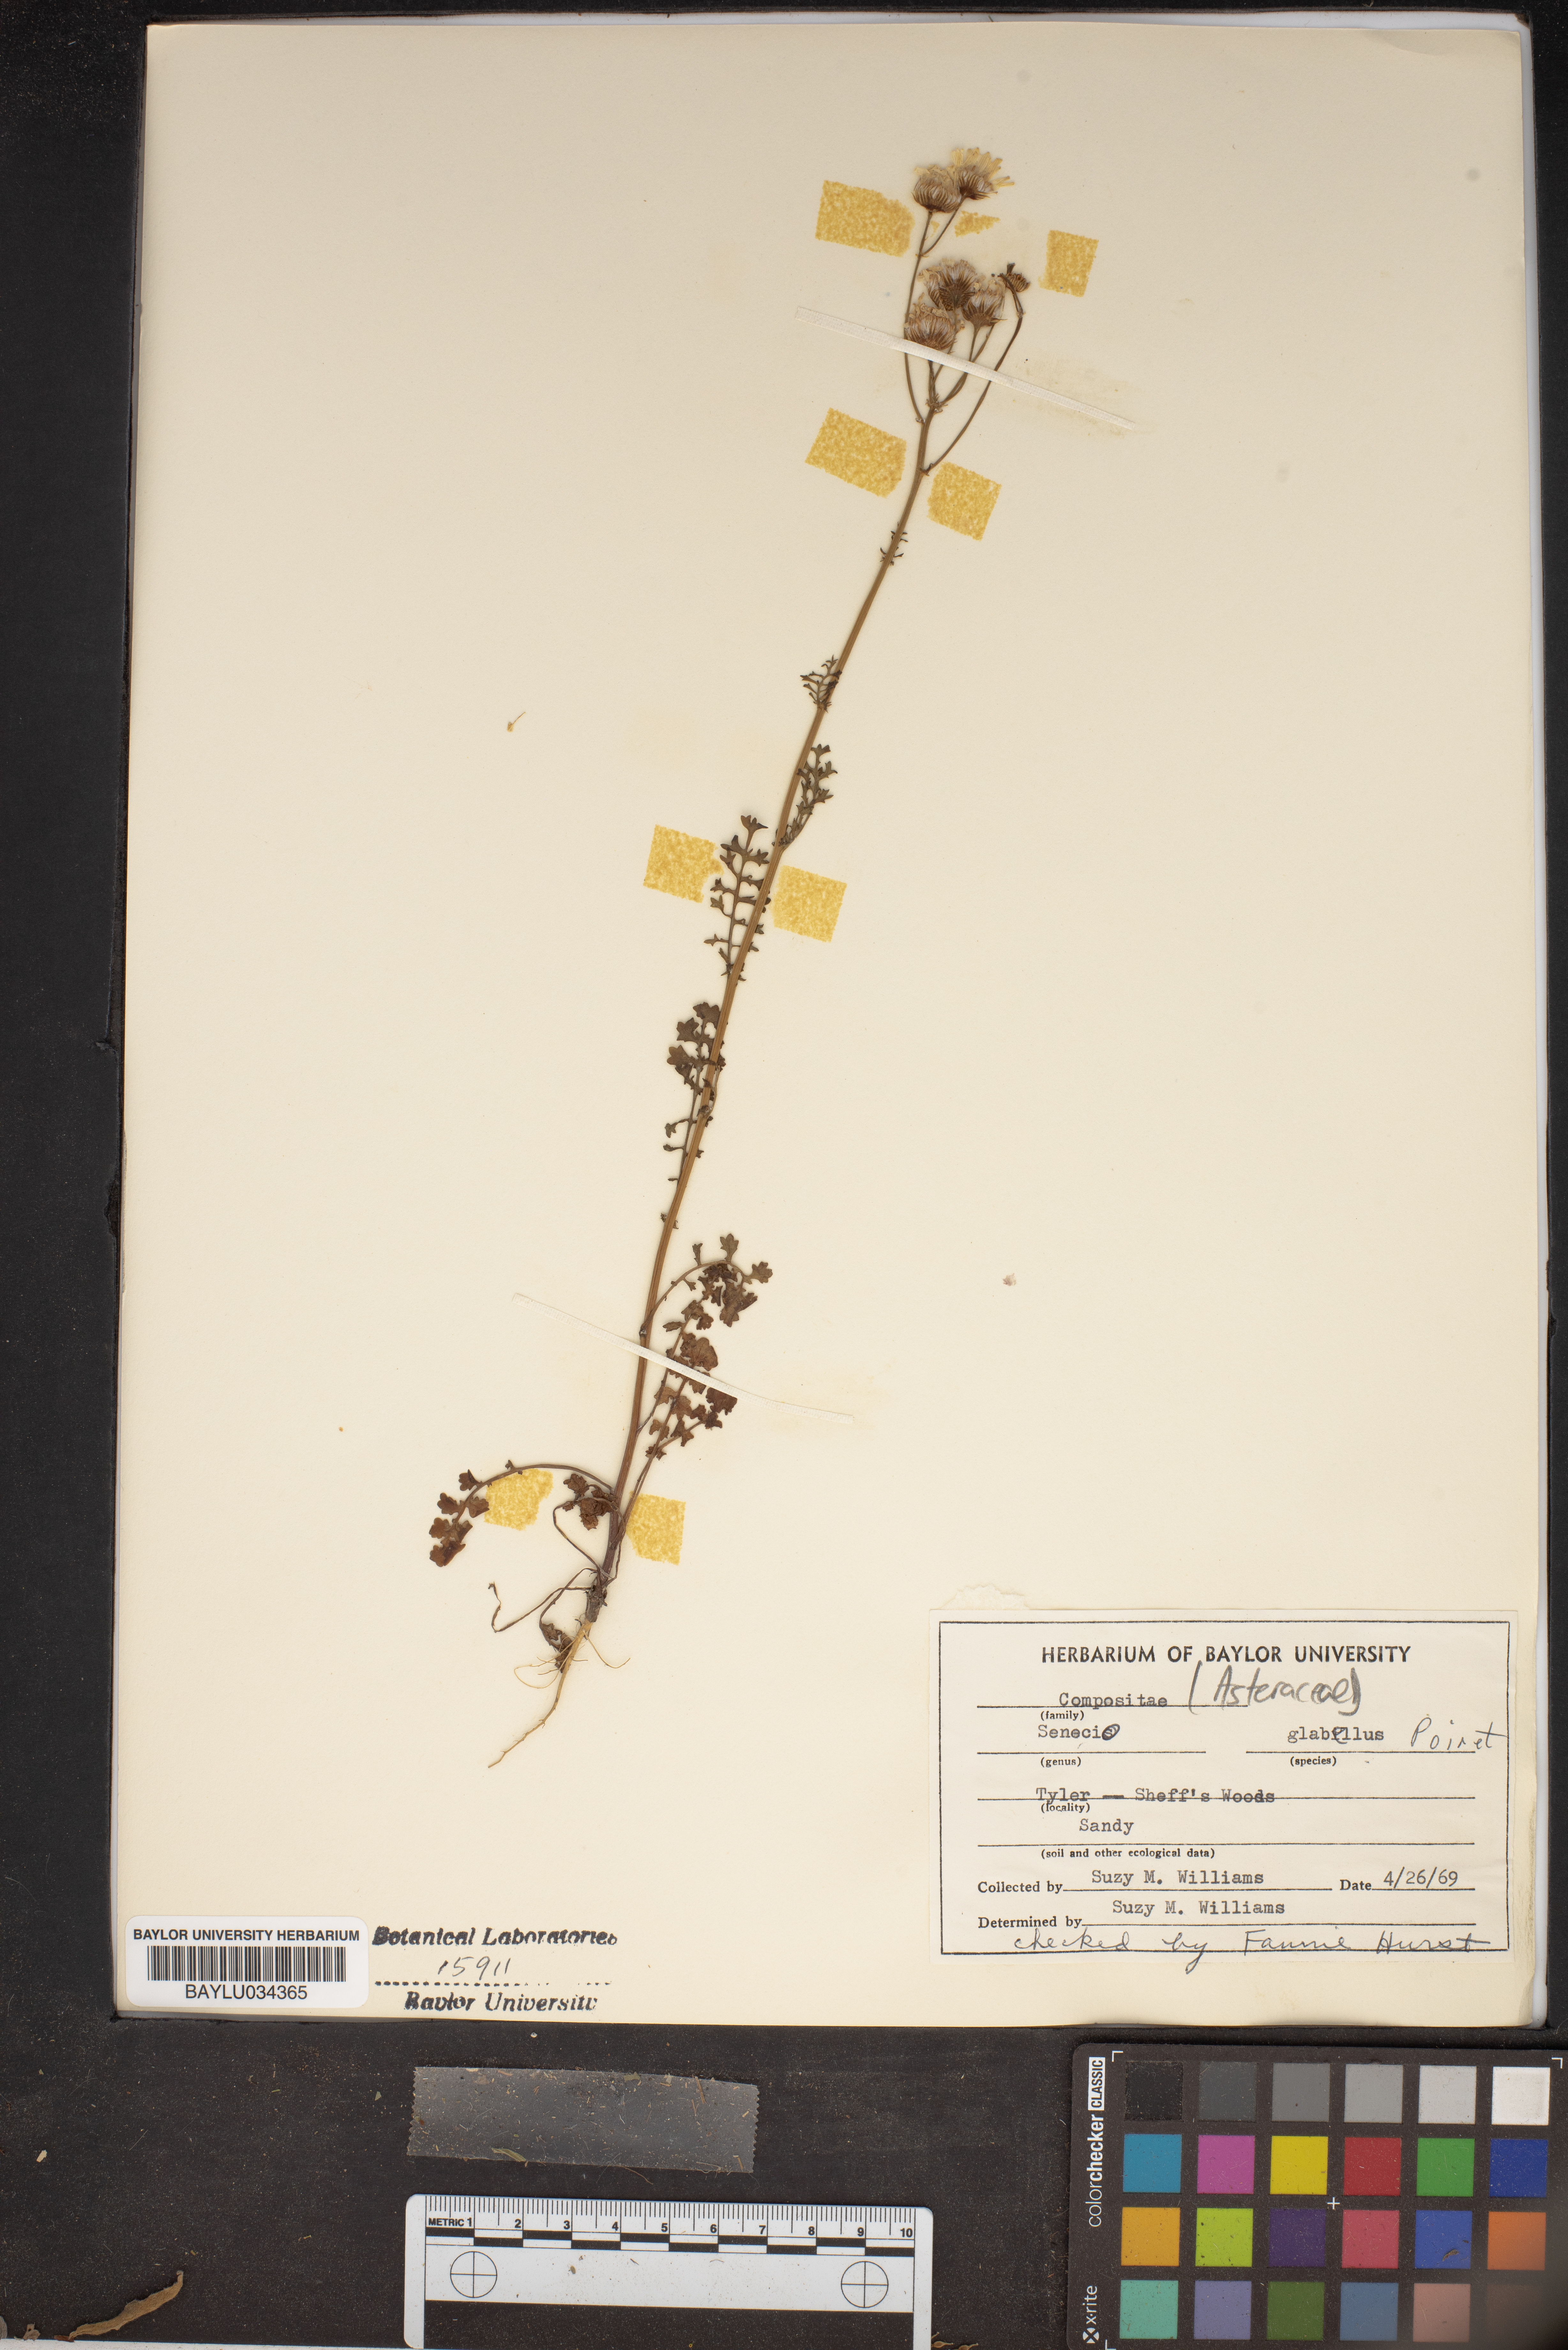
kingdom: Plantae
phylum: Tracheophyta
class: Magnoliopsida
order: Asterales
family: Asteraceae
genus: Tephroseris
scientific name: Tephroseris praticola
